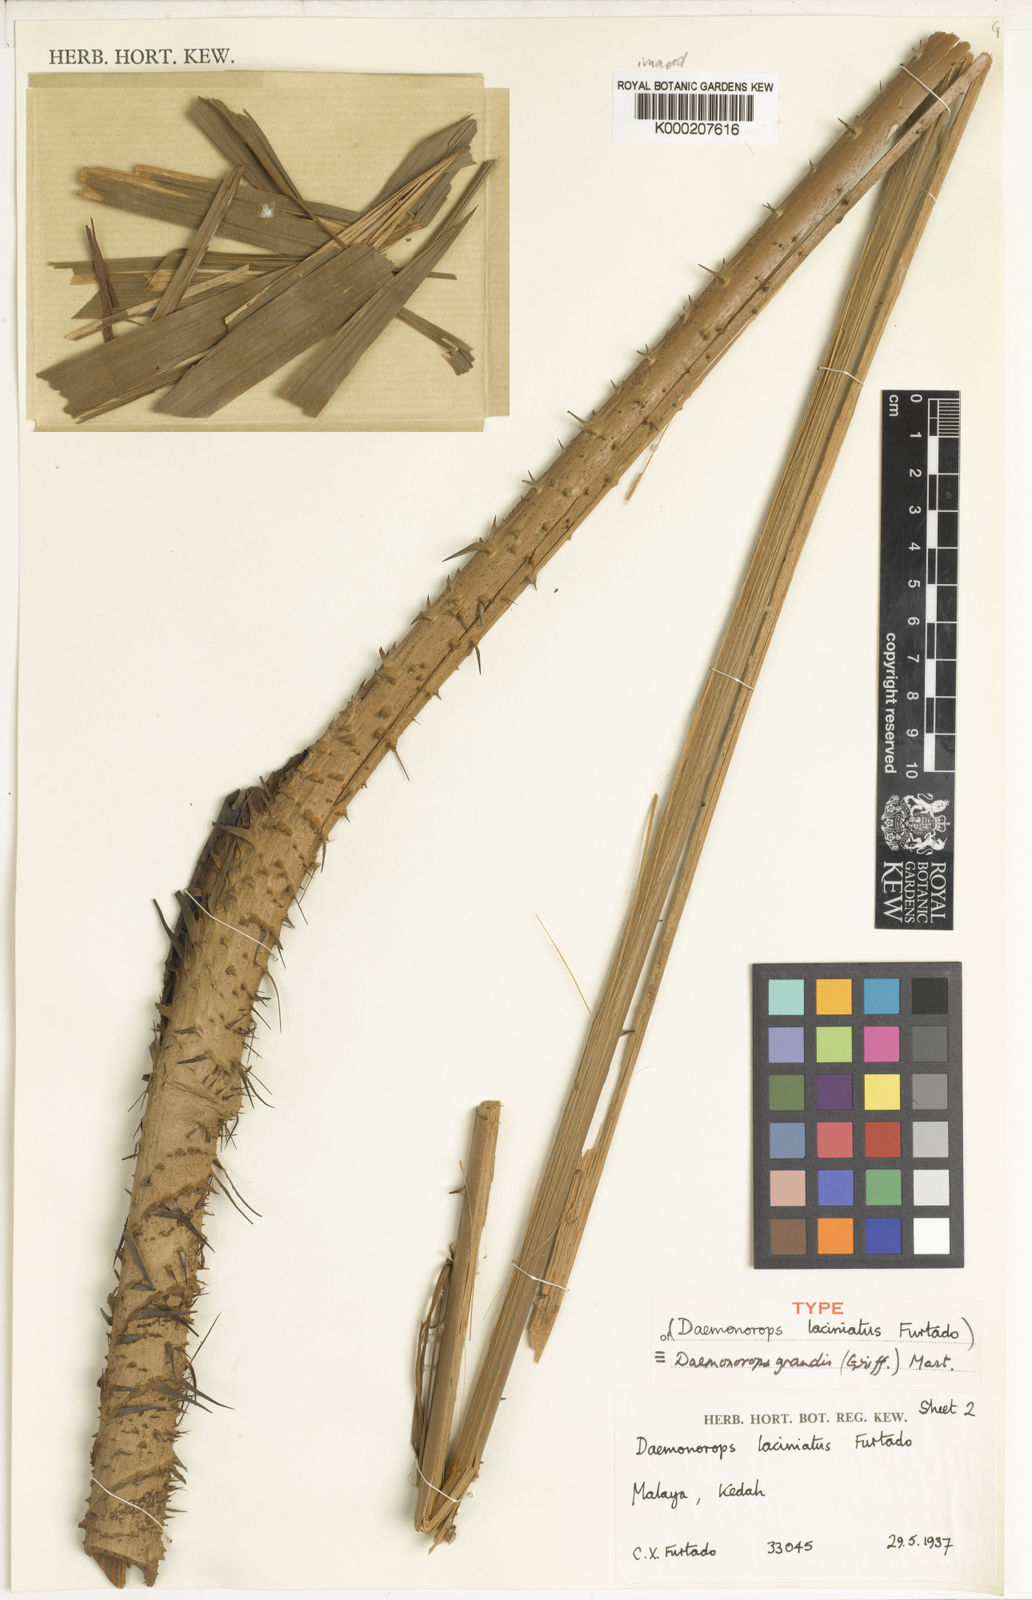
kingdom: Plantae
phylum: Tracheophyta
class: Liliopsida
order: Arecales
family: Arecaceae
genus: Calamus
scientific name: Calamus melanochaetes
